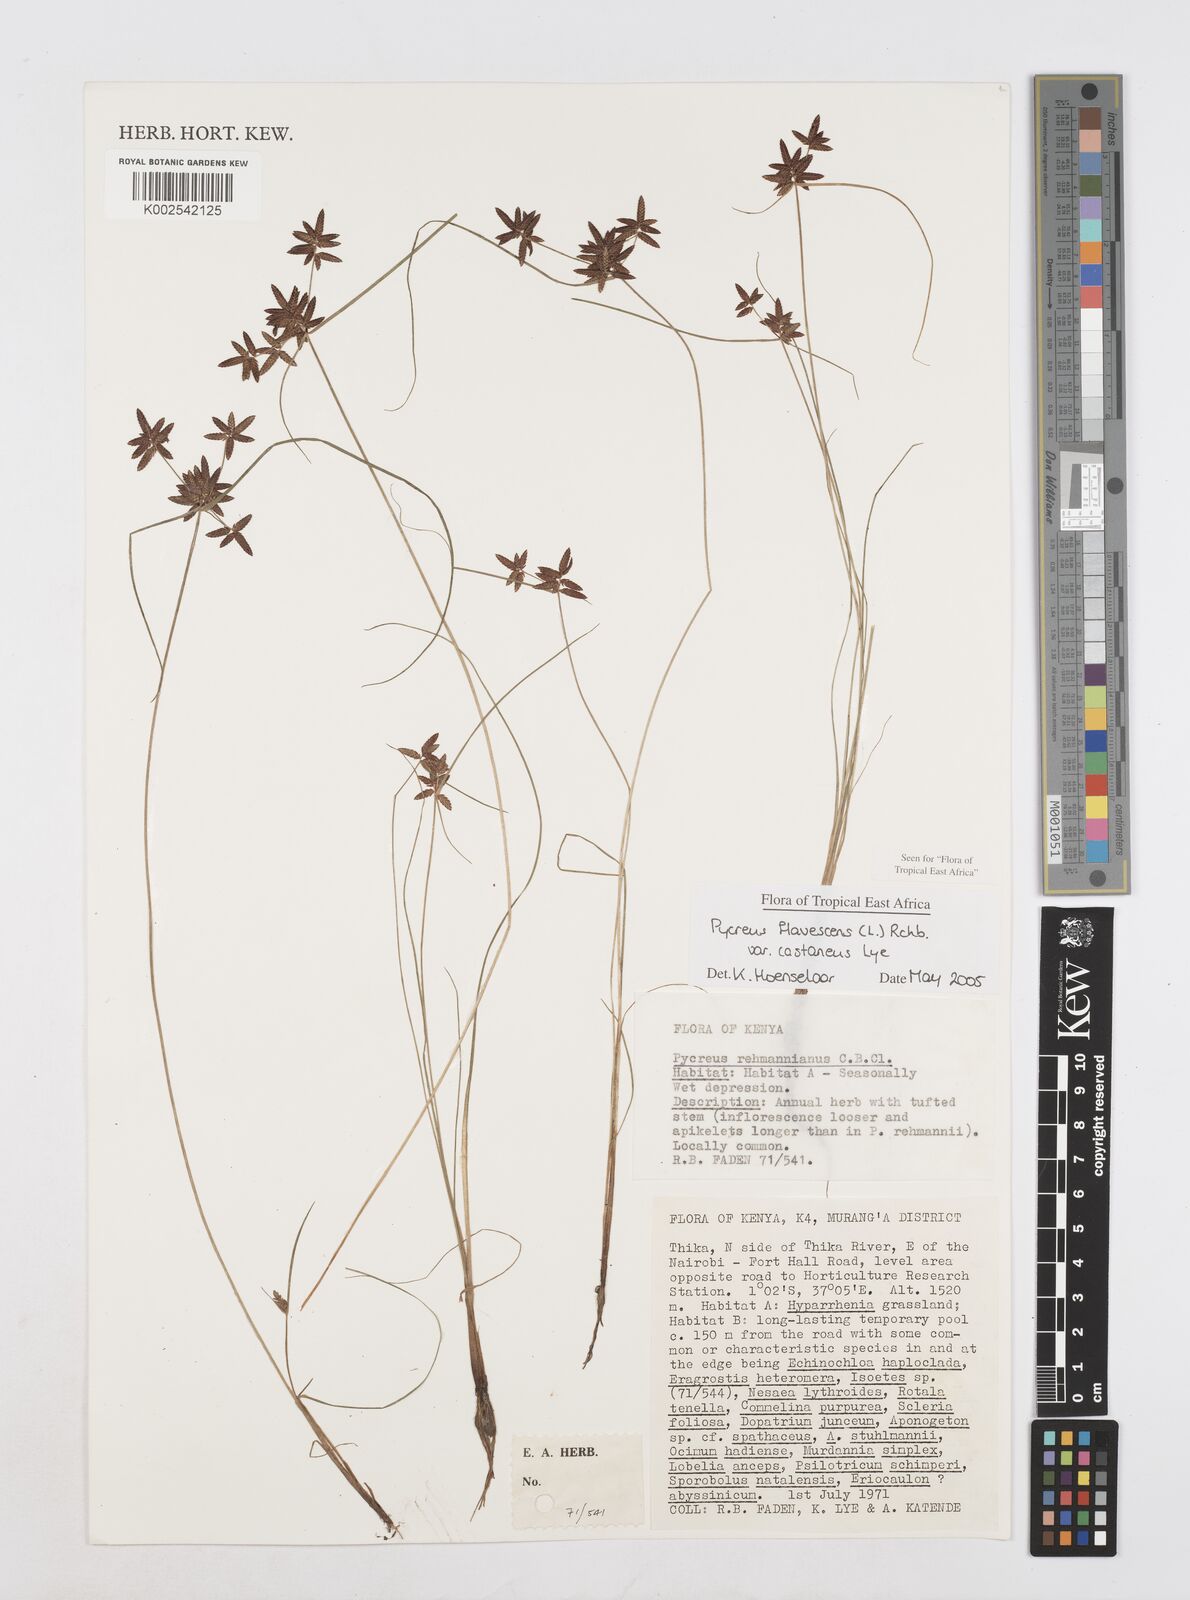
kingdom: Plantae
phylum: Tracheophyta
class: Liliopsida
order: Poales
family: Cyperaceae
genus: Cyperus
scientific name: Cyperus flavescens
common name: Yellow galingale
